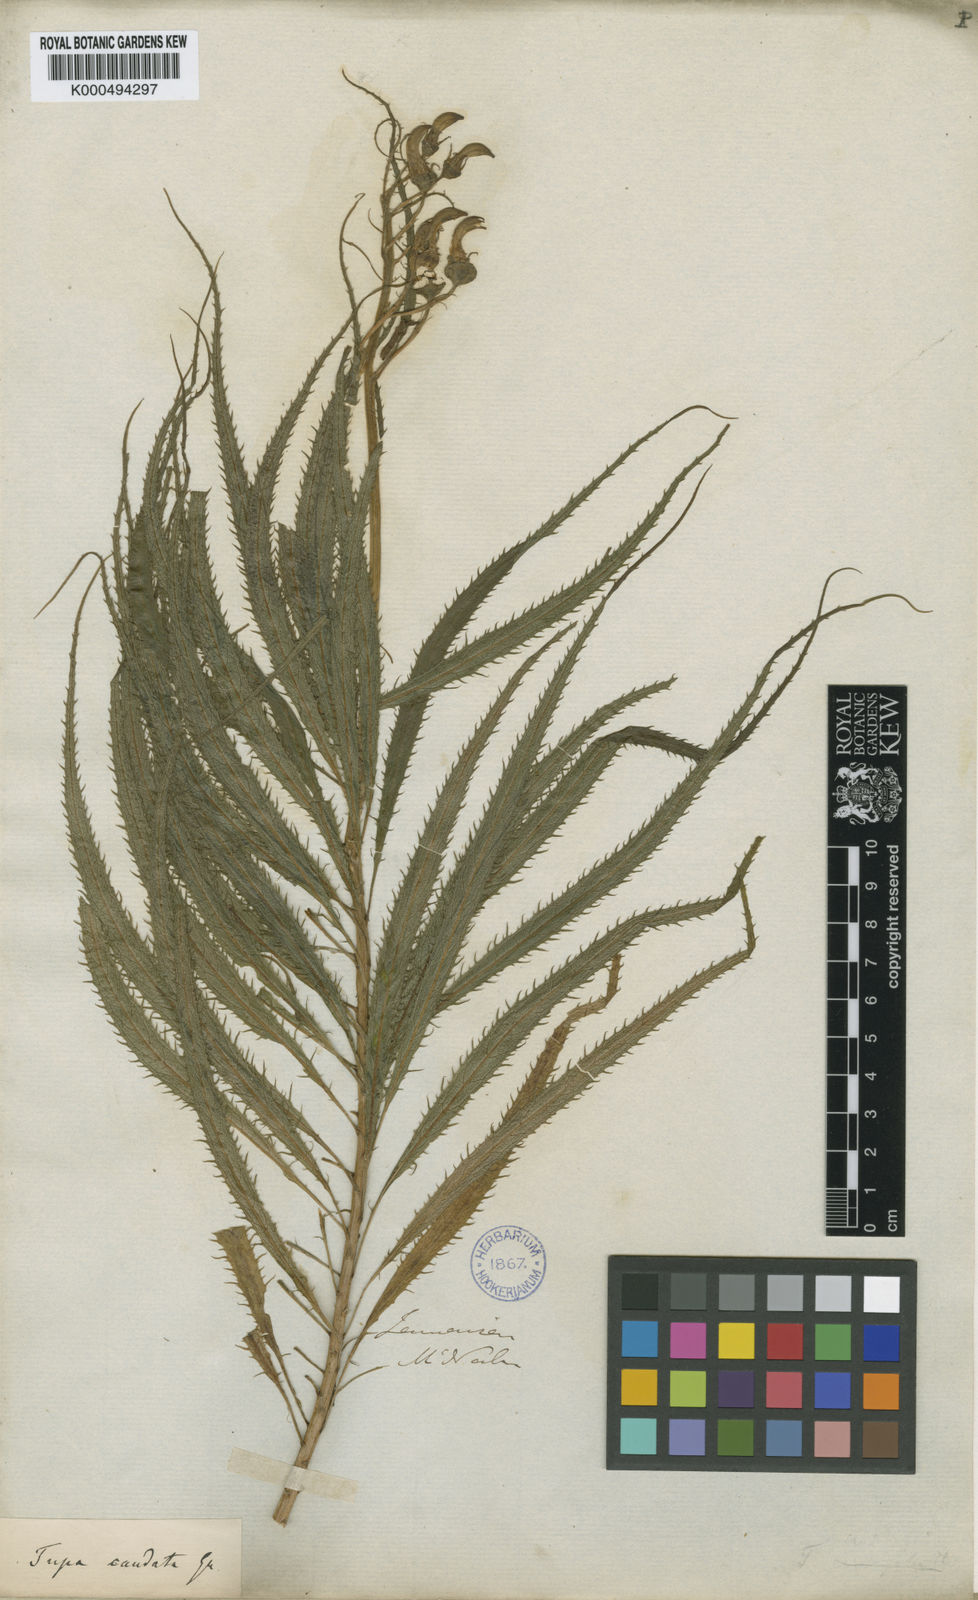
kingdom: Plantae
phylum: Tracheophyta
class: Magnoliopsida
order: Asterales
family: Campanulaceae
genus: Lobelia
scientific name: Lobelia caudata
